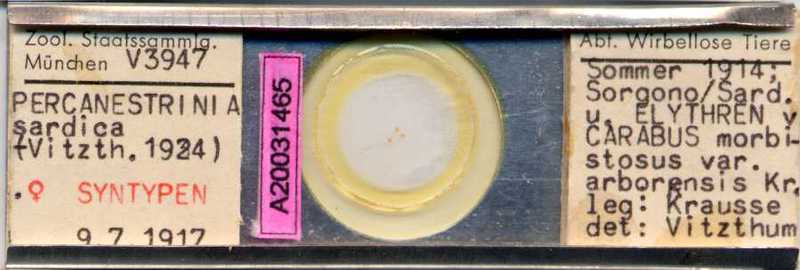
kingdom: Animalia
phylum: Arthropoda
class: Arachnida
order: Sarcoptiformes
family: Canestriniidae
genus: Canestrinia
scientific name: Canestrinia
